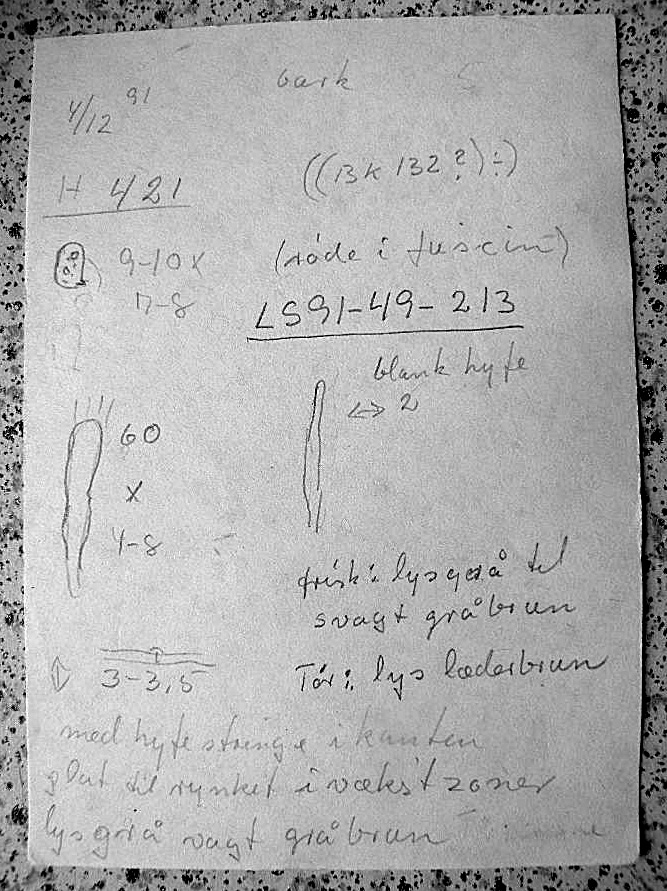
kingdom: Fungi
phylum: Basidiomycota
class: Agaricomycetes
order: Agaricales
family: Radulomycetaceae
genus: Radulomyces
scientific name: Radulomyces confluens
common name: glat naftalinskind
